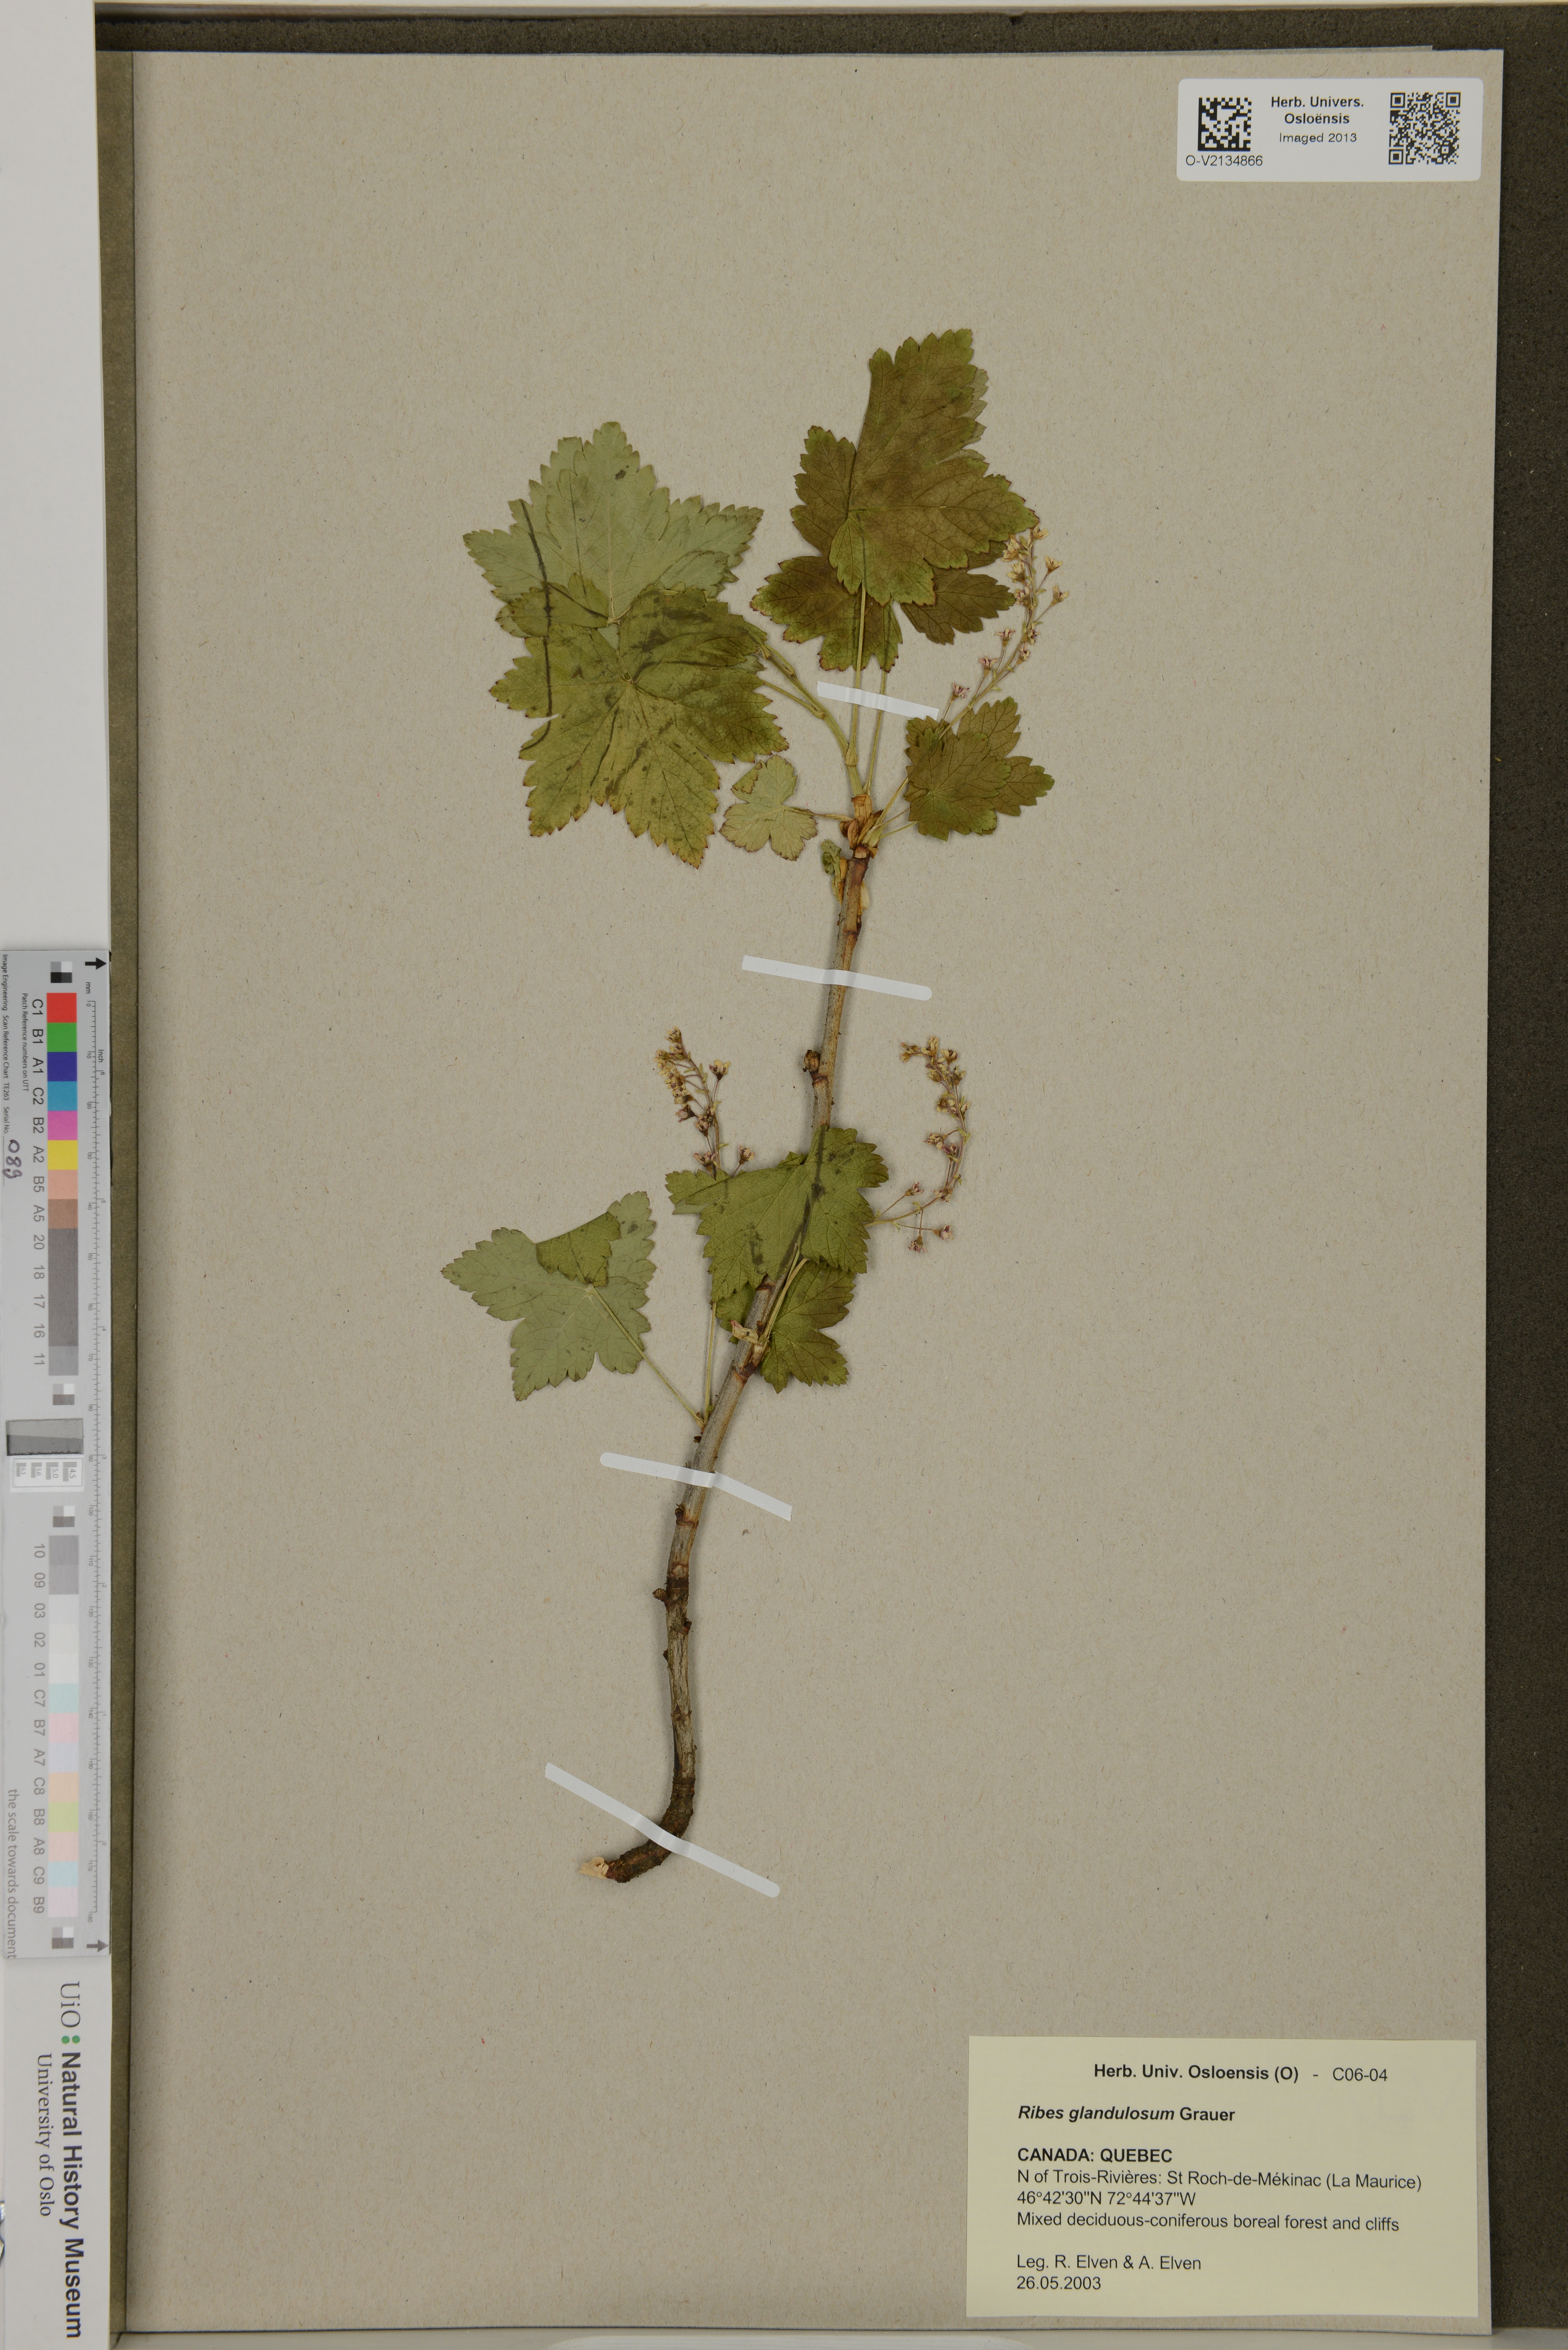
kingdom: Plantae
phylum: Tracheophyta
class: Magnoliopsida
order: Saxifragales
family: Grossulariaceae
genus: Ribes
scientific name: Ribes glandulosum
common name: Skunk currant
